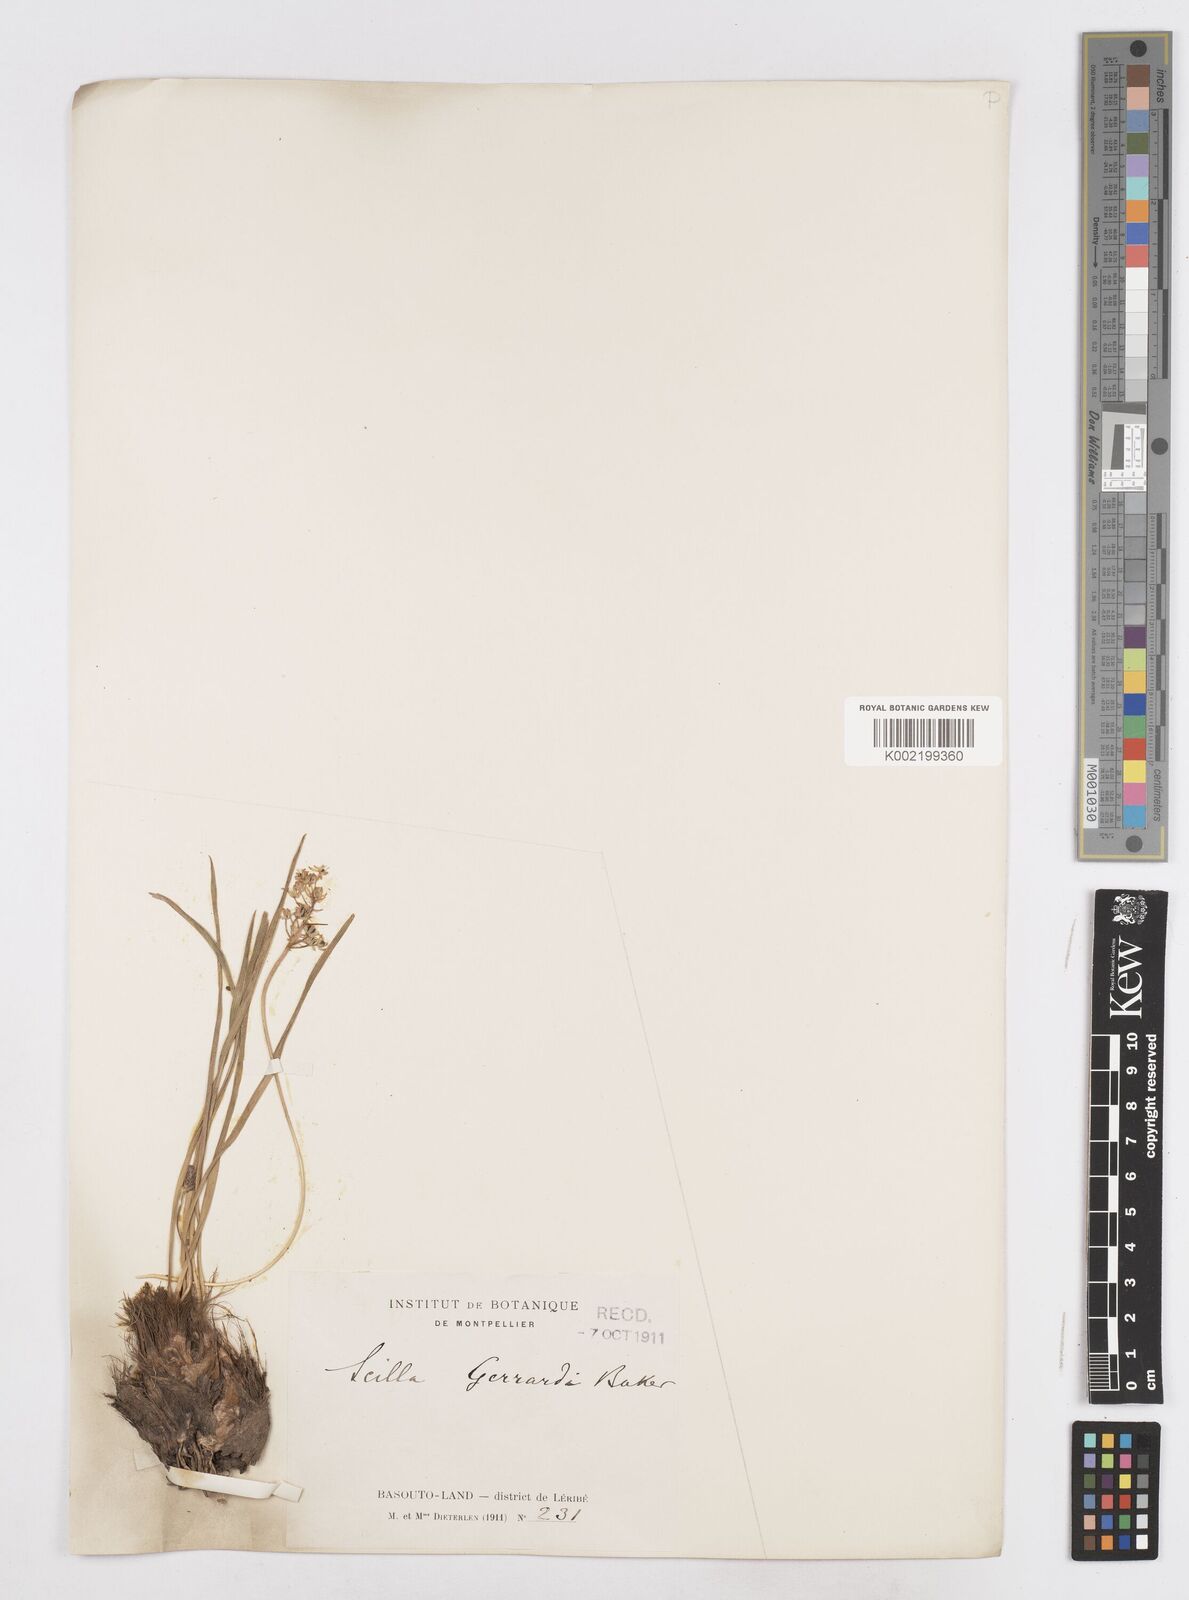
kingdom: Plantae
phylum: Tracheophyta
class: Liliopsida
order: Asparagales
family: Asparagaceae
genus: Schizocarphus
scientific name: Schizocarphus nervosus
